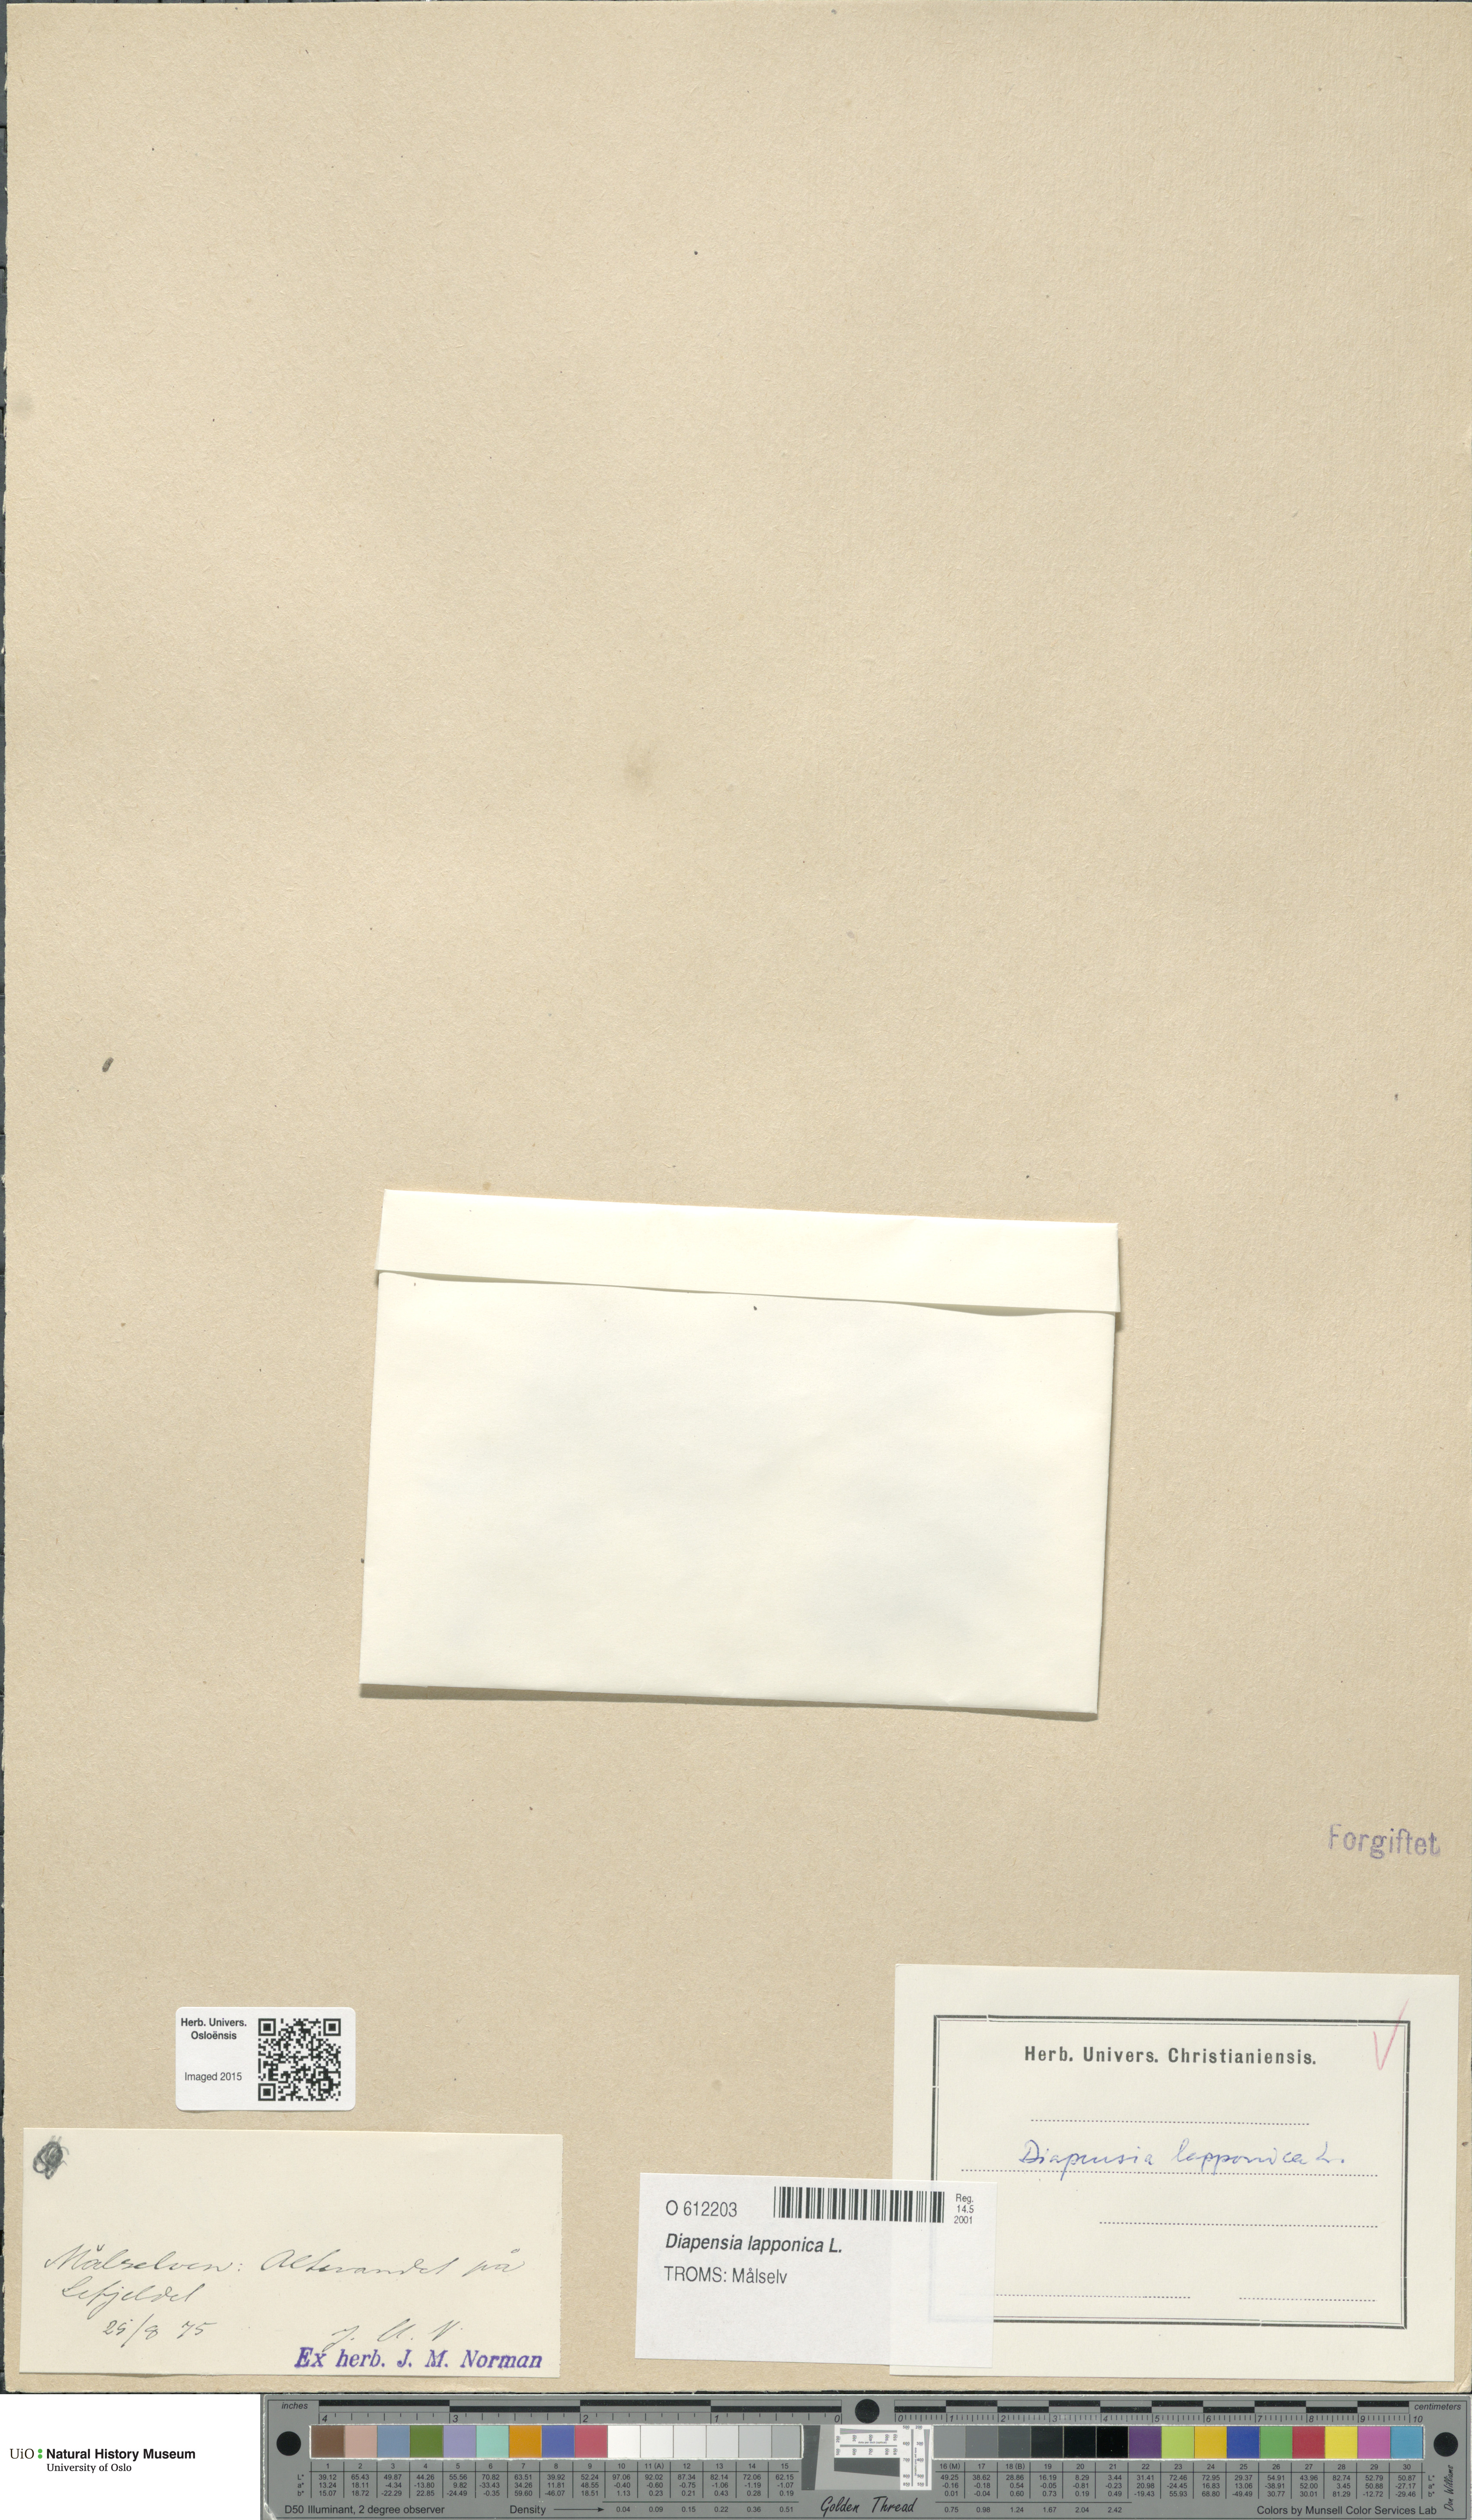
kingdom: Plantae
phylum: Tracheophyta
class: Magnoliopsida
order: Ericales
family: Diapensiaceae
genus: Diapensia
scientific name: Diapensia lapponica
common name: Diapensia
